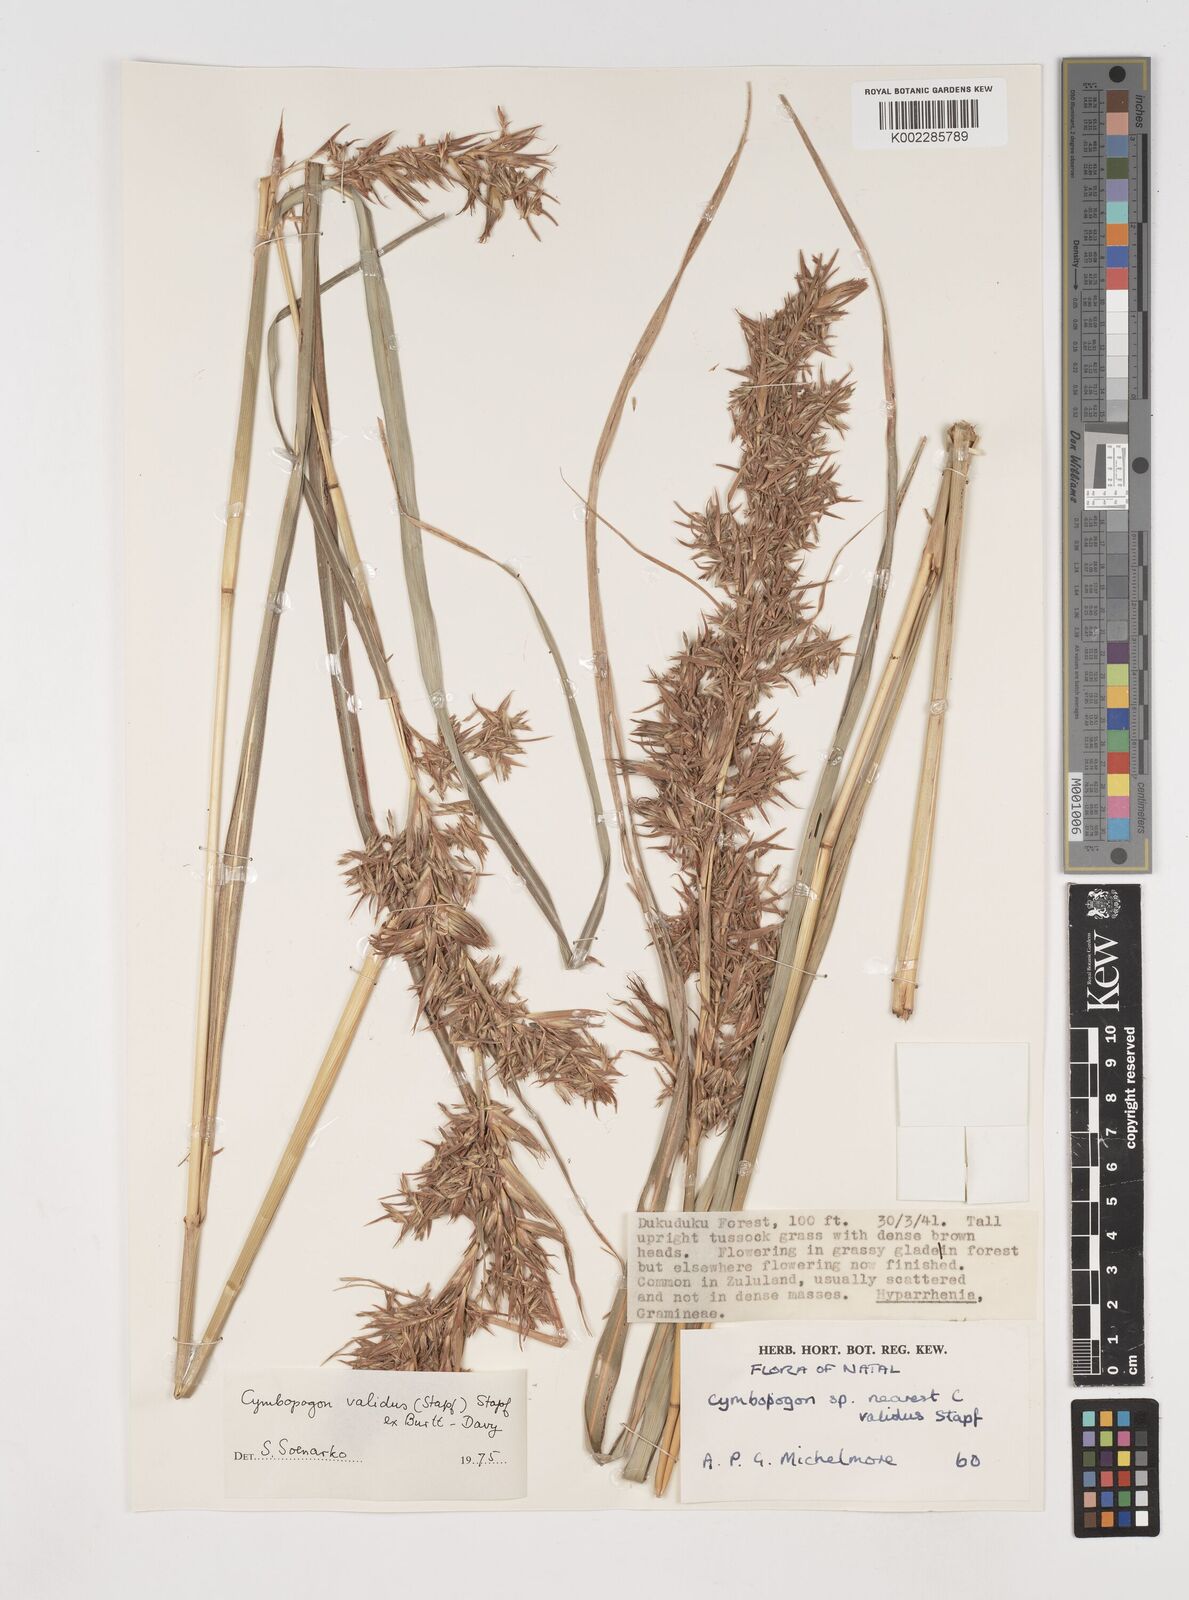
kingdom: Plantae
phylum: Tracheophyta
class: Liliopsida
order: Poales
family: Poaceae
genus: Cymbopogon
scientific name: Cymbopogon nardus
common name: Giant turpentine grass
